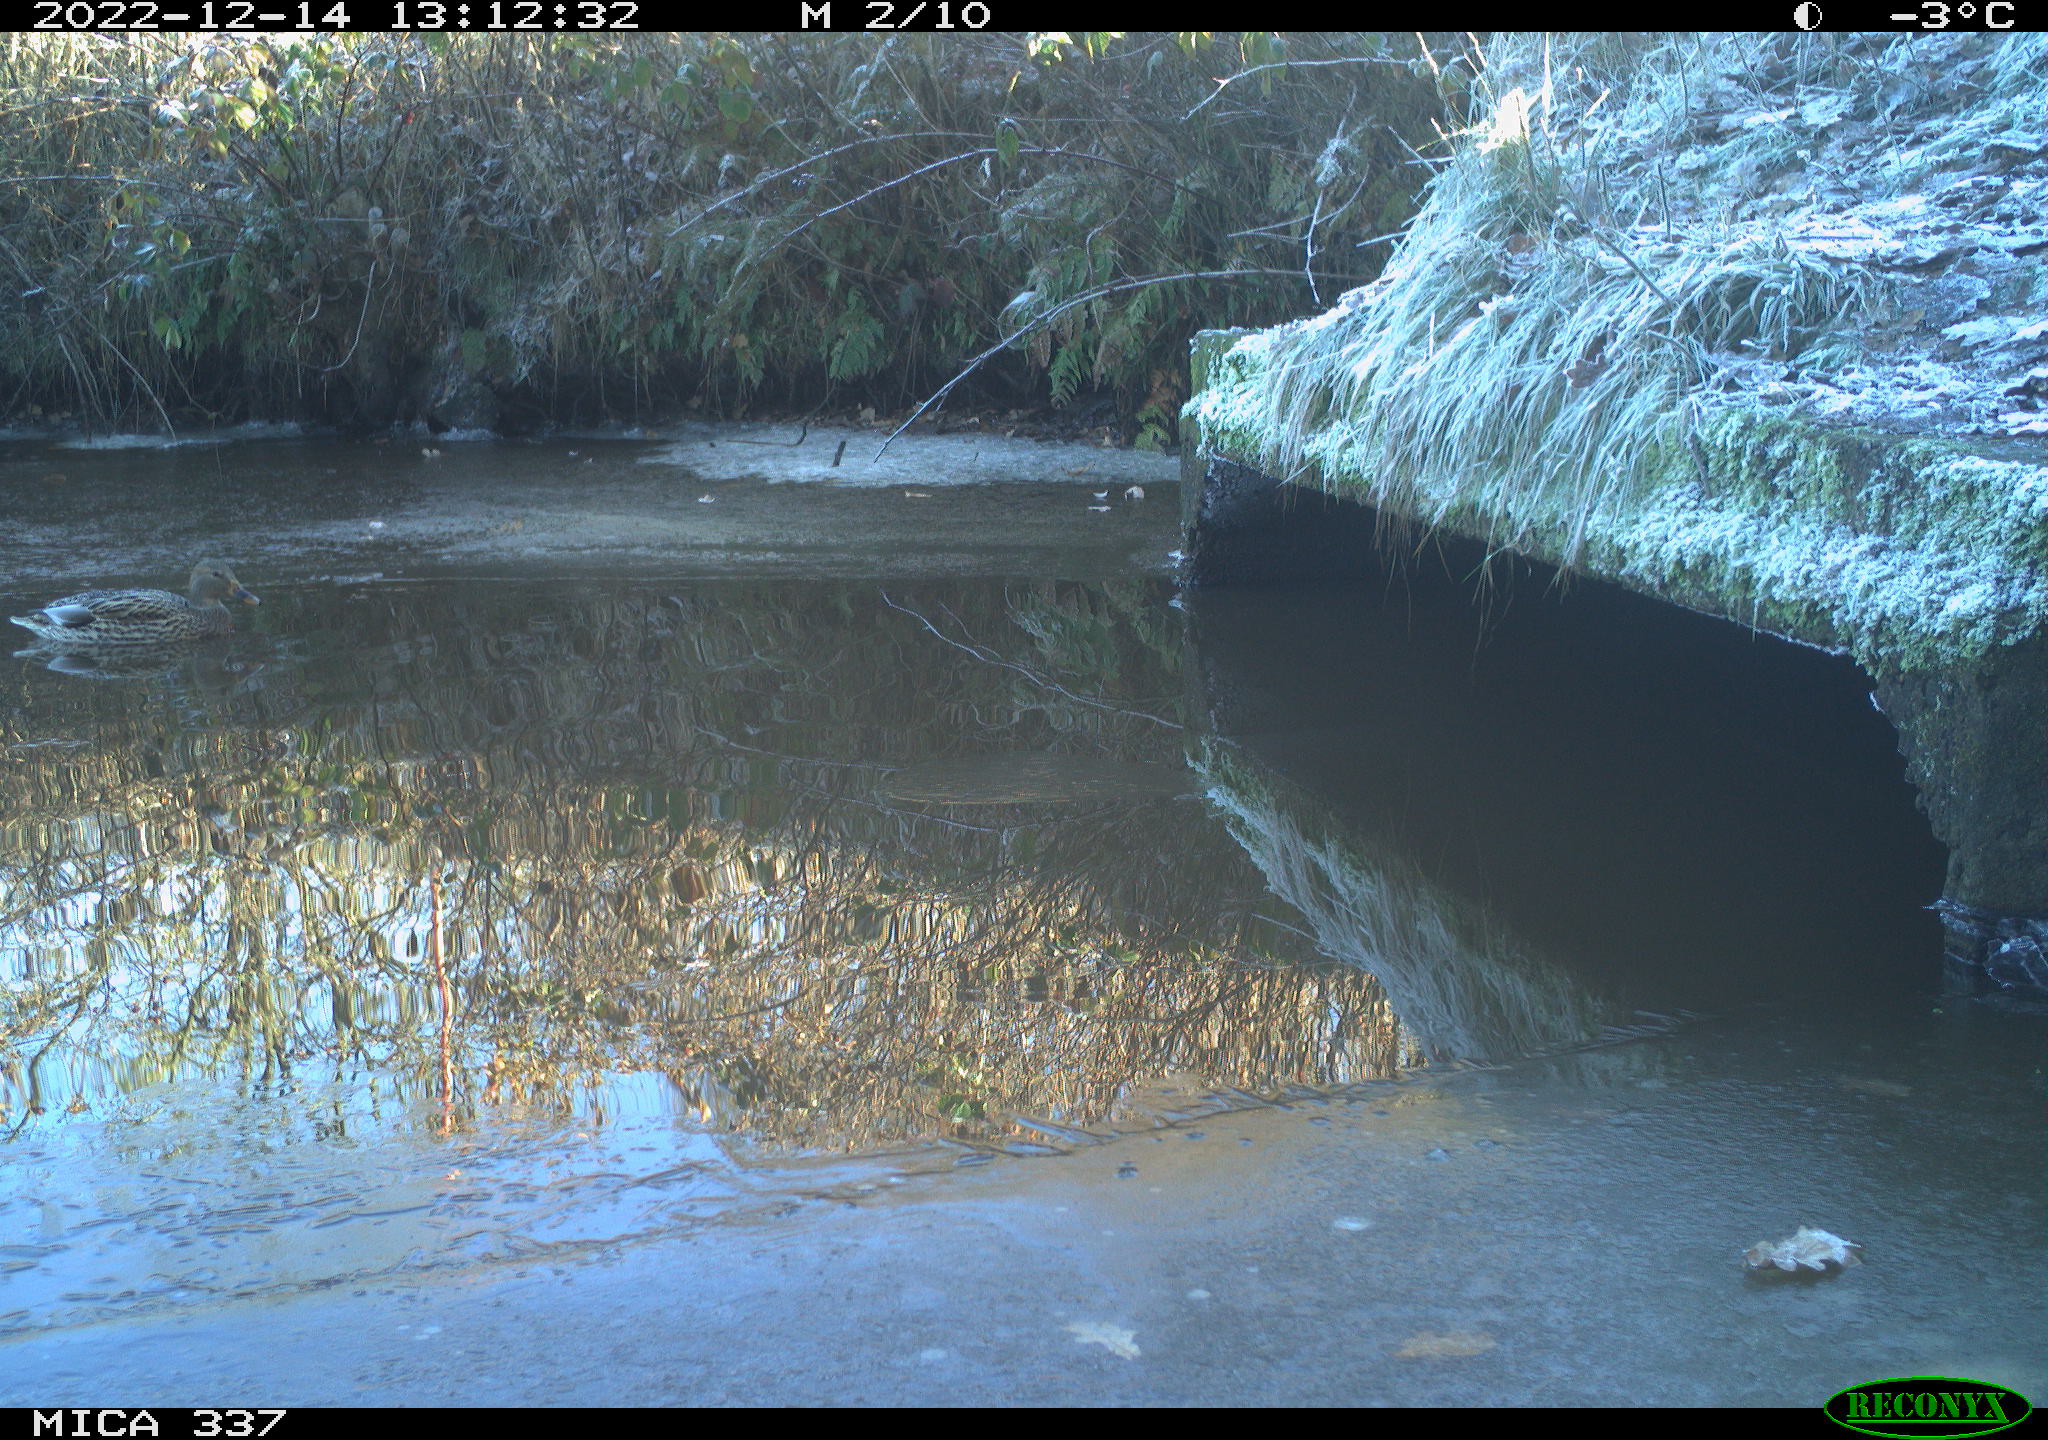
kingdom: Animalia
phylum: Chordata
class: Aves
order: Anseriformes
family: Anatidae
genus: Anas
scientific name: Anas
